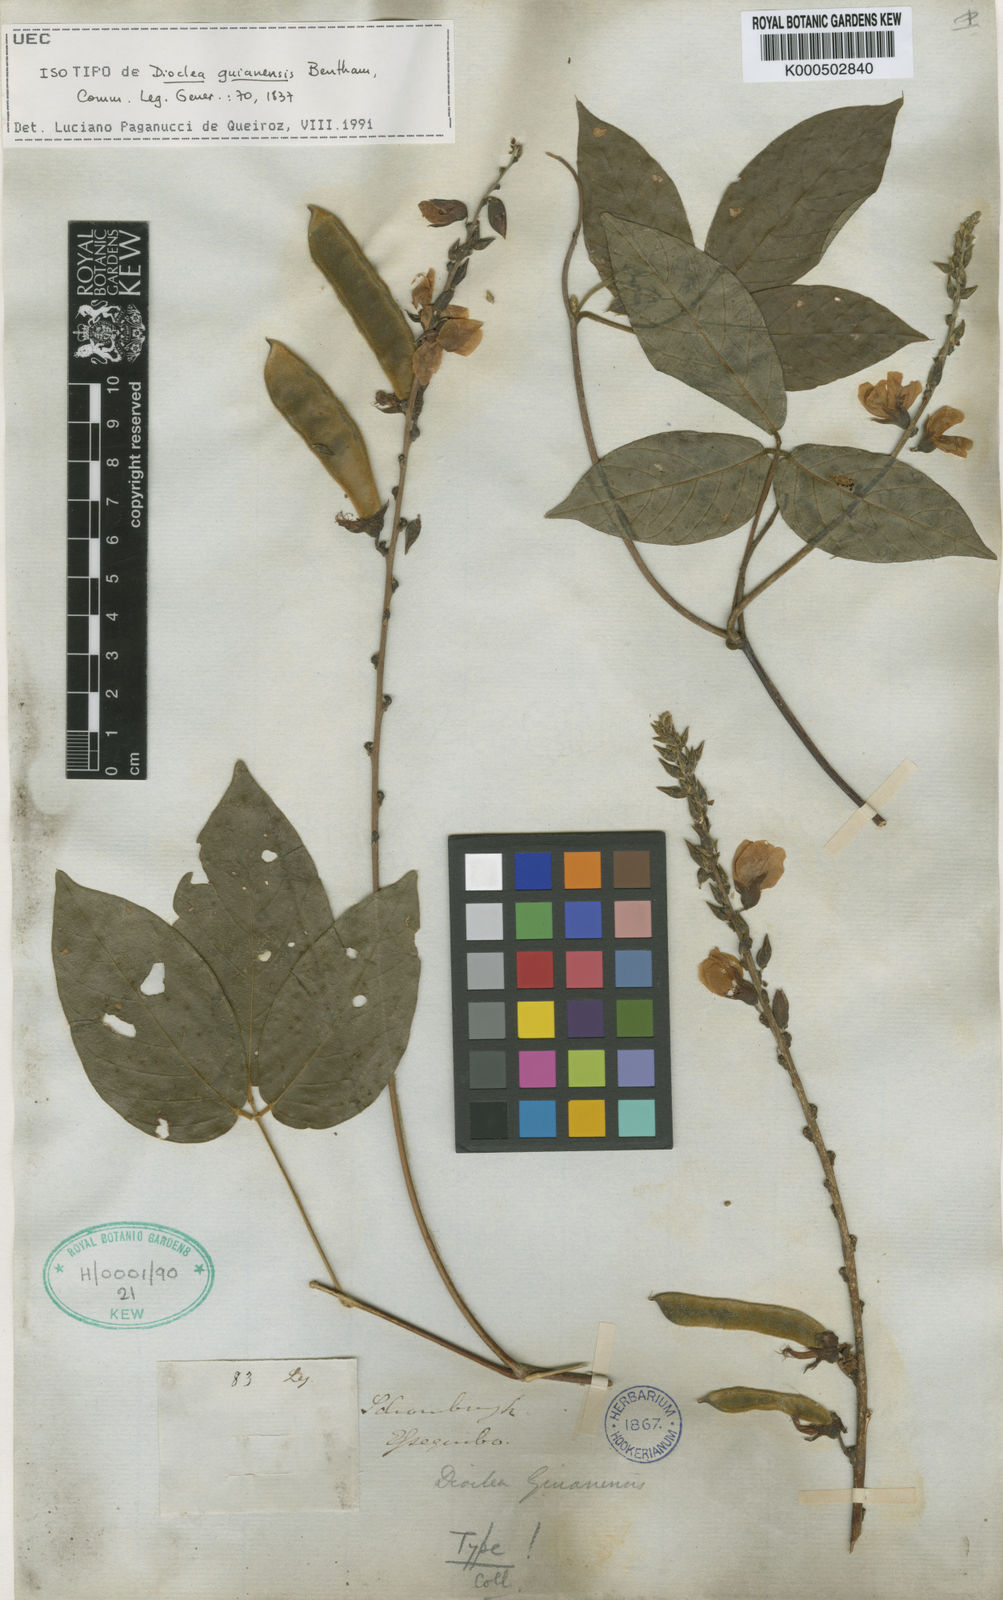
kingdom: Plantae
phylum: Tracheophyta
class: Magnoliopsida
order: Fabales
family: Fabaceae
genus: Dioclea
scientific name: Dioclea guianensis
